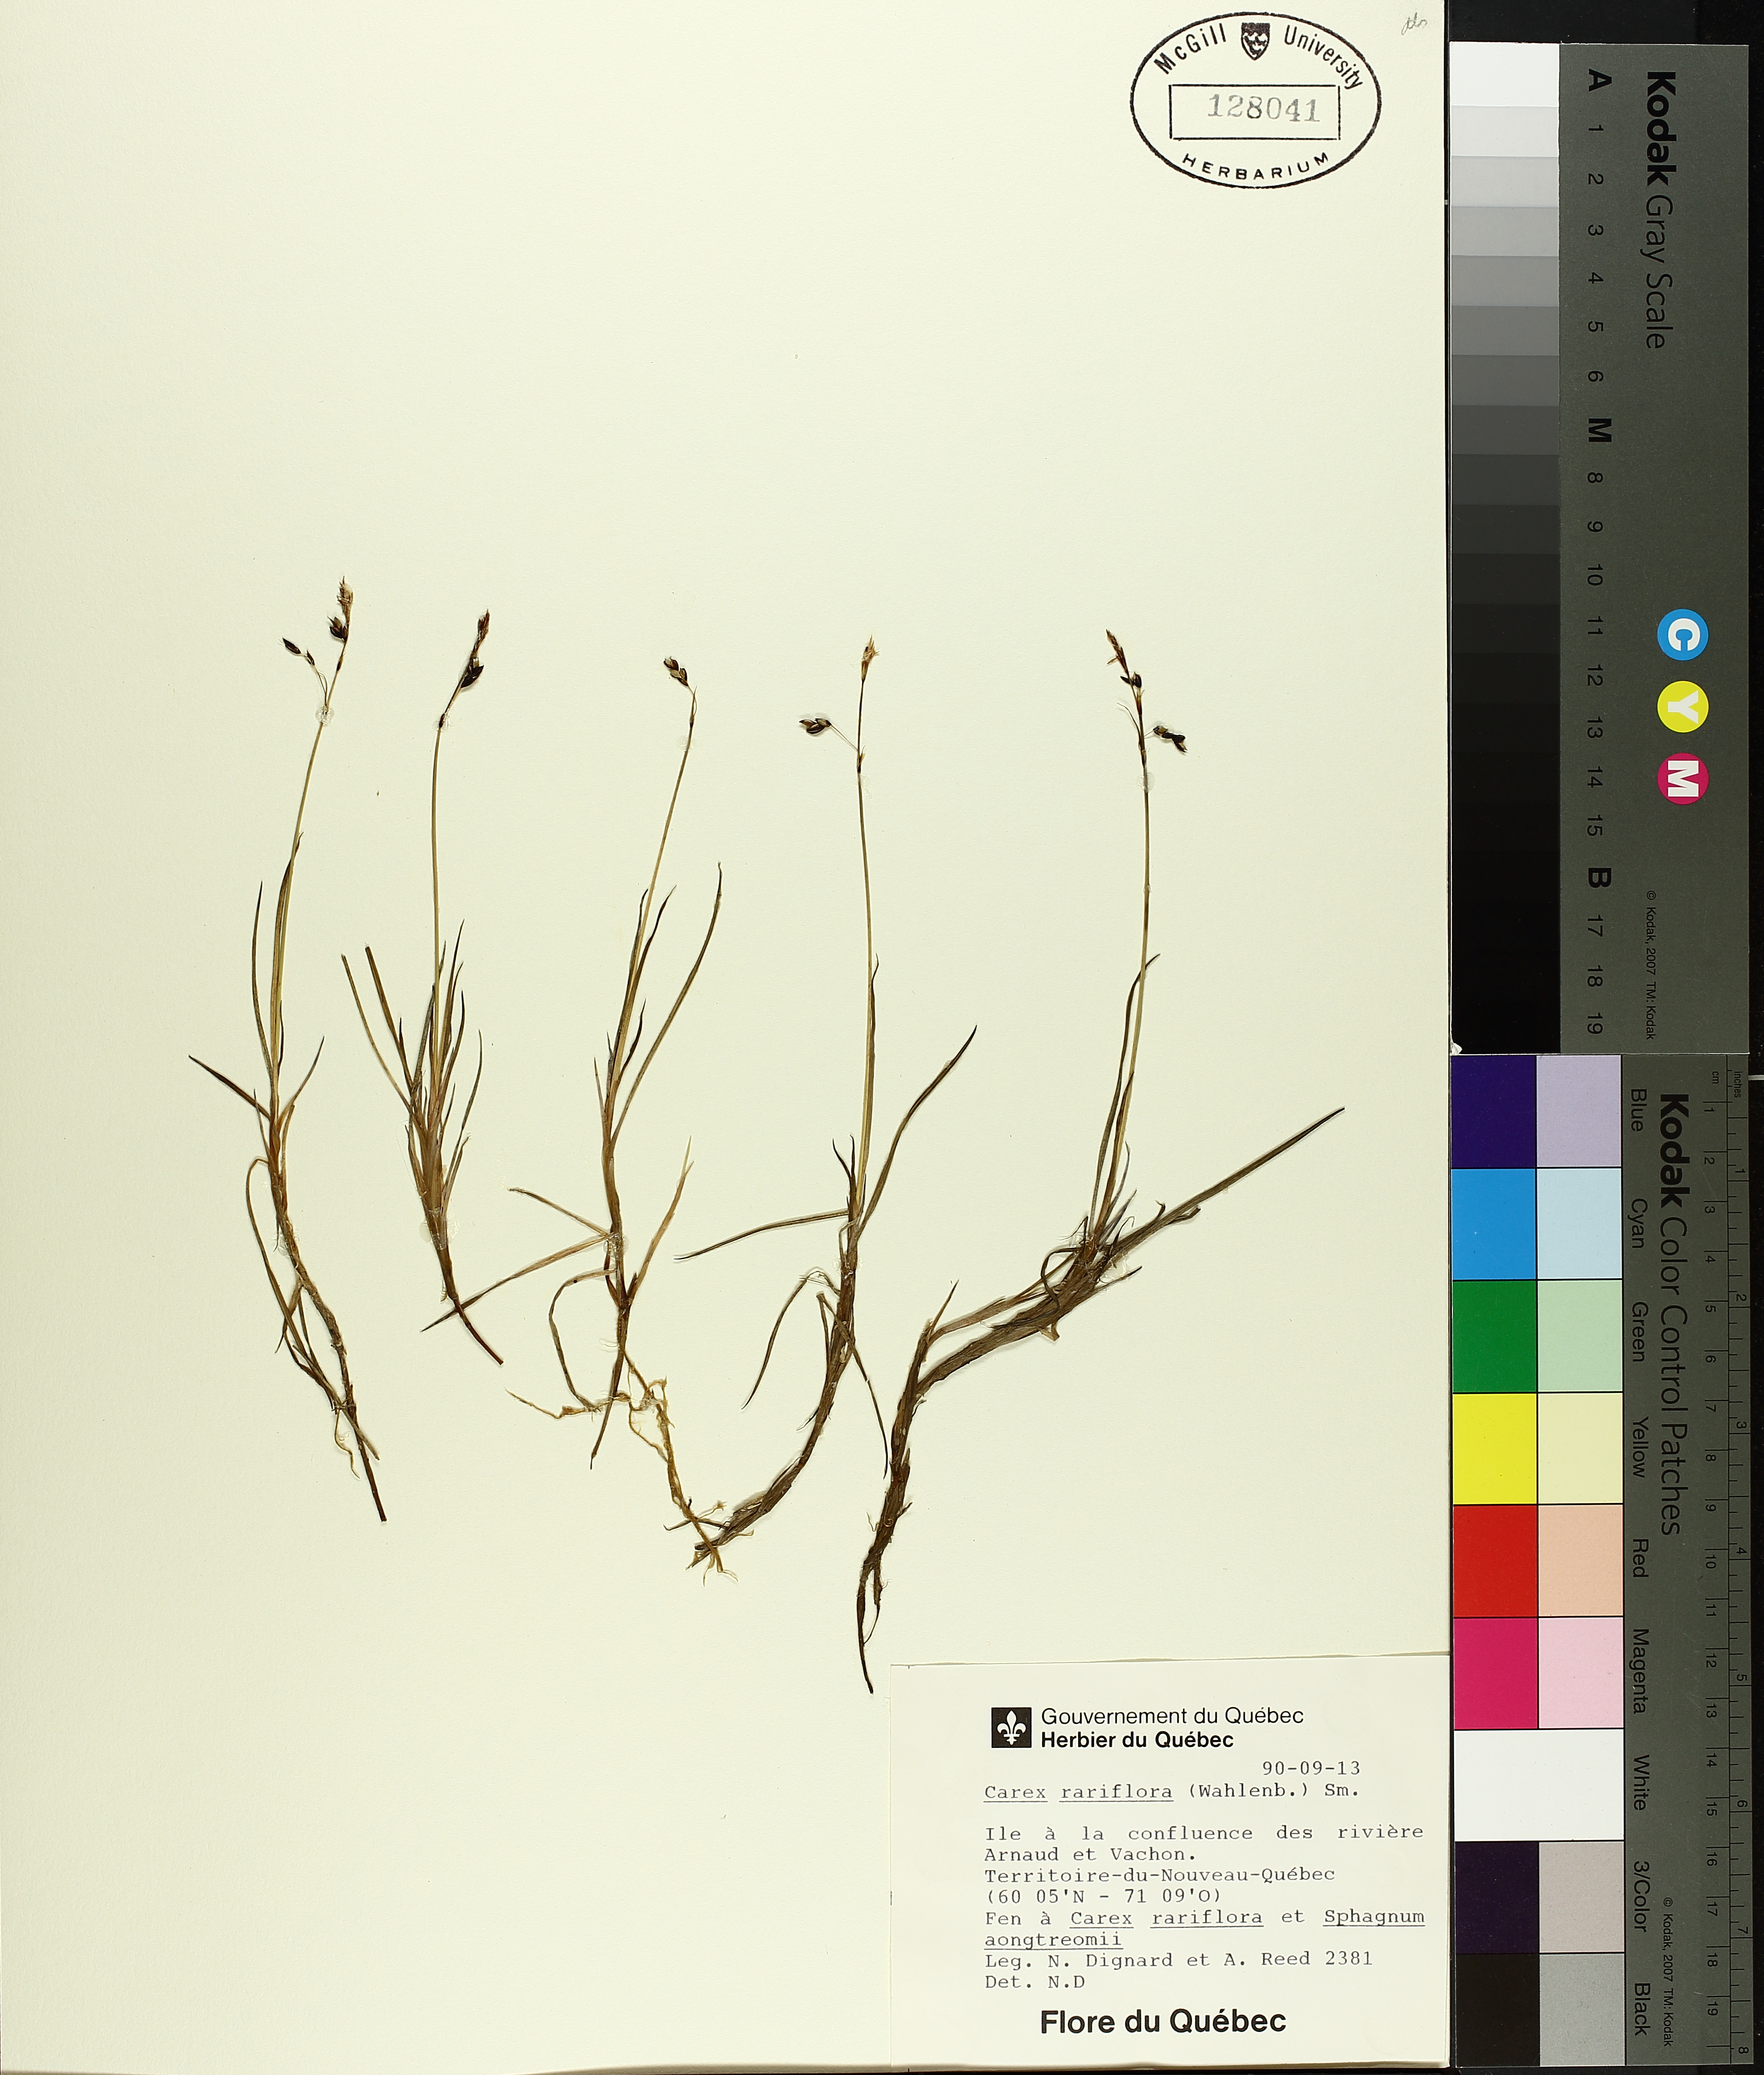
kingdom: Plantae
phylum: Tracheophyta
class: Liliopsida
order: Poales
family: Cyperaceae
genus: Carex
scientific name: Carex rariflora
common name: Loose-flowered alpine sedge
